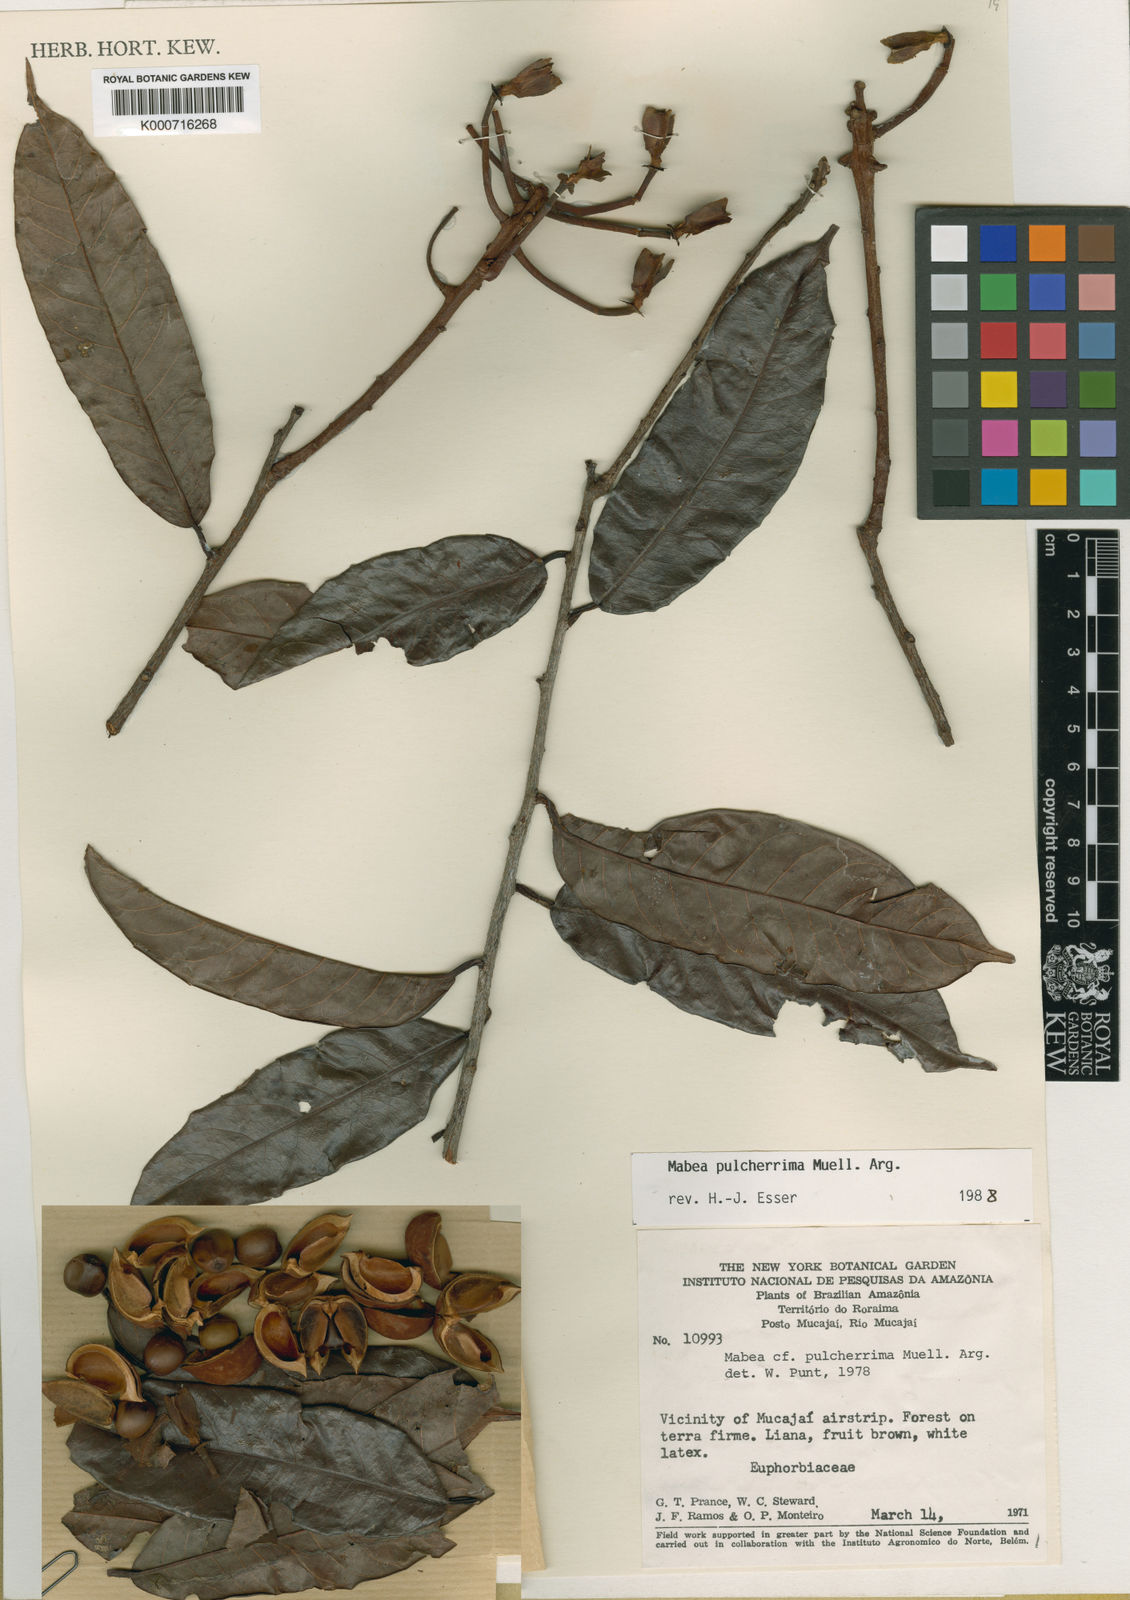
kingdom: Plantae
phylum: Tracheophyta
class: Magnoliopsida
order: Malpighiales
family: Euphorbiaceae
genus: Mabea
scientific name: Mabea
